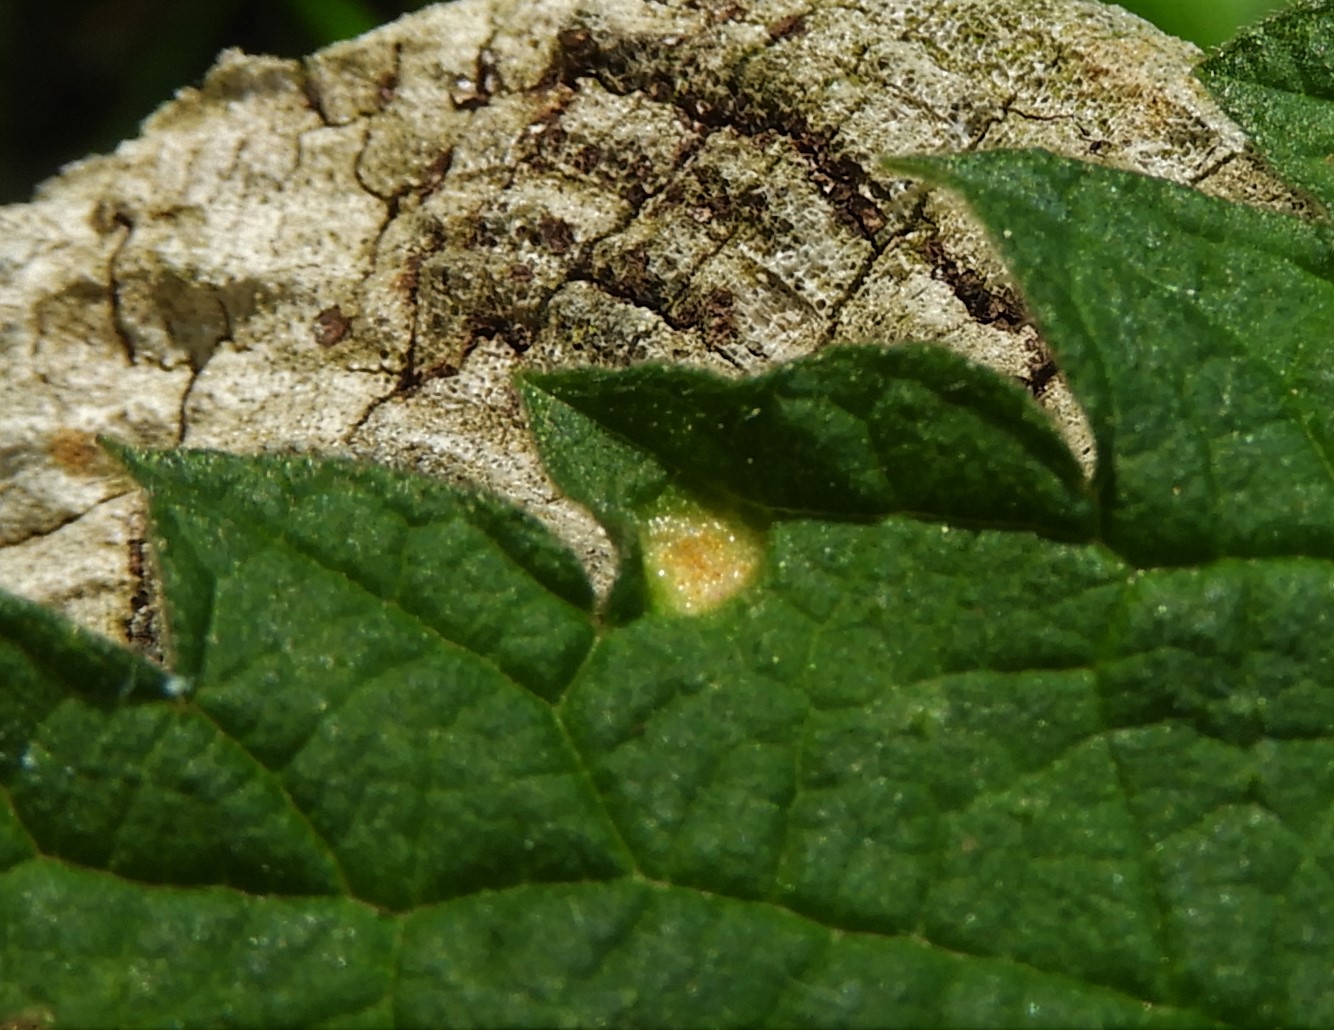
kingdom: Fungi
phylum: Basidiomycota
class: Pucciniomycetes
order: Pucciniales
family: Pucciniaceae
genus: Puccinia
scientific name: Puccinia urticata
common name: nældegalle-tvecellerust
